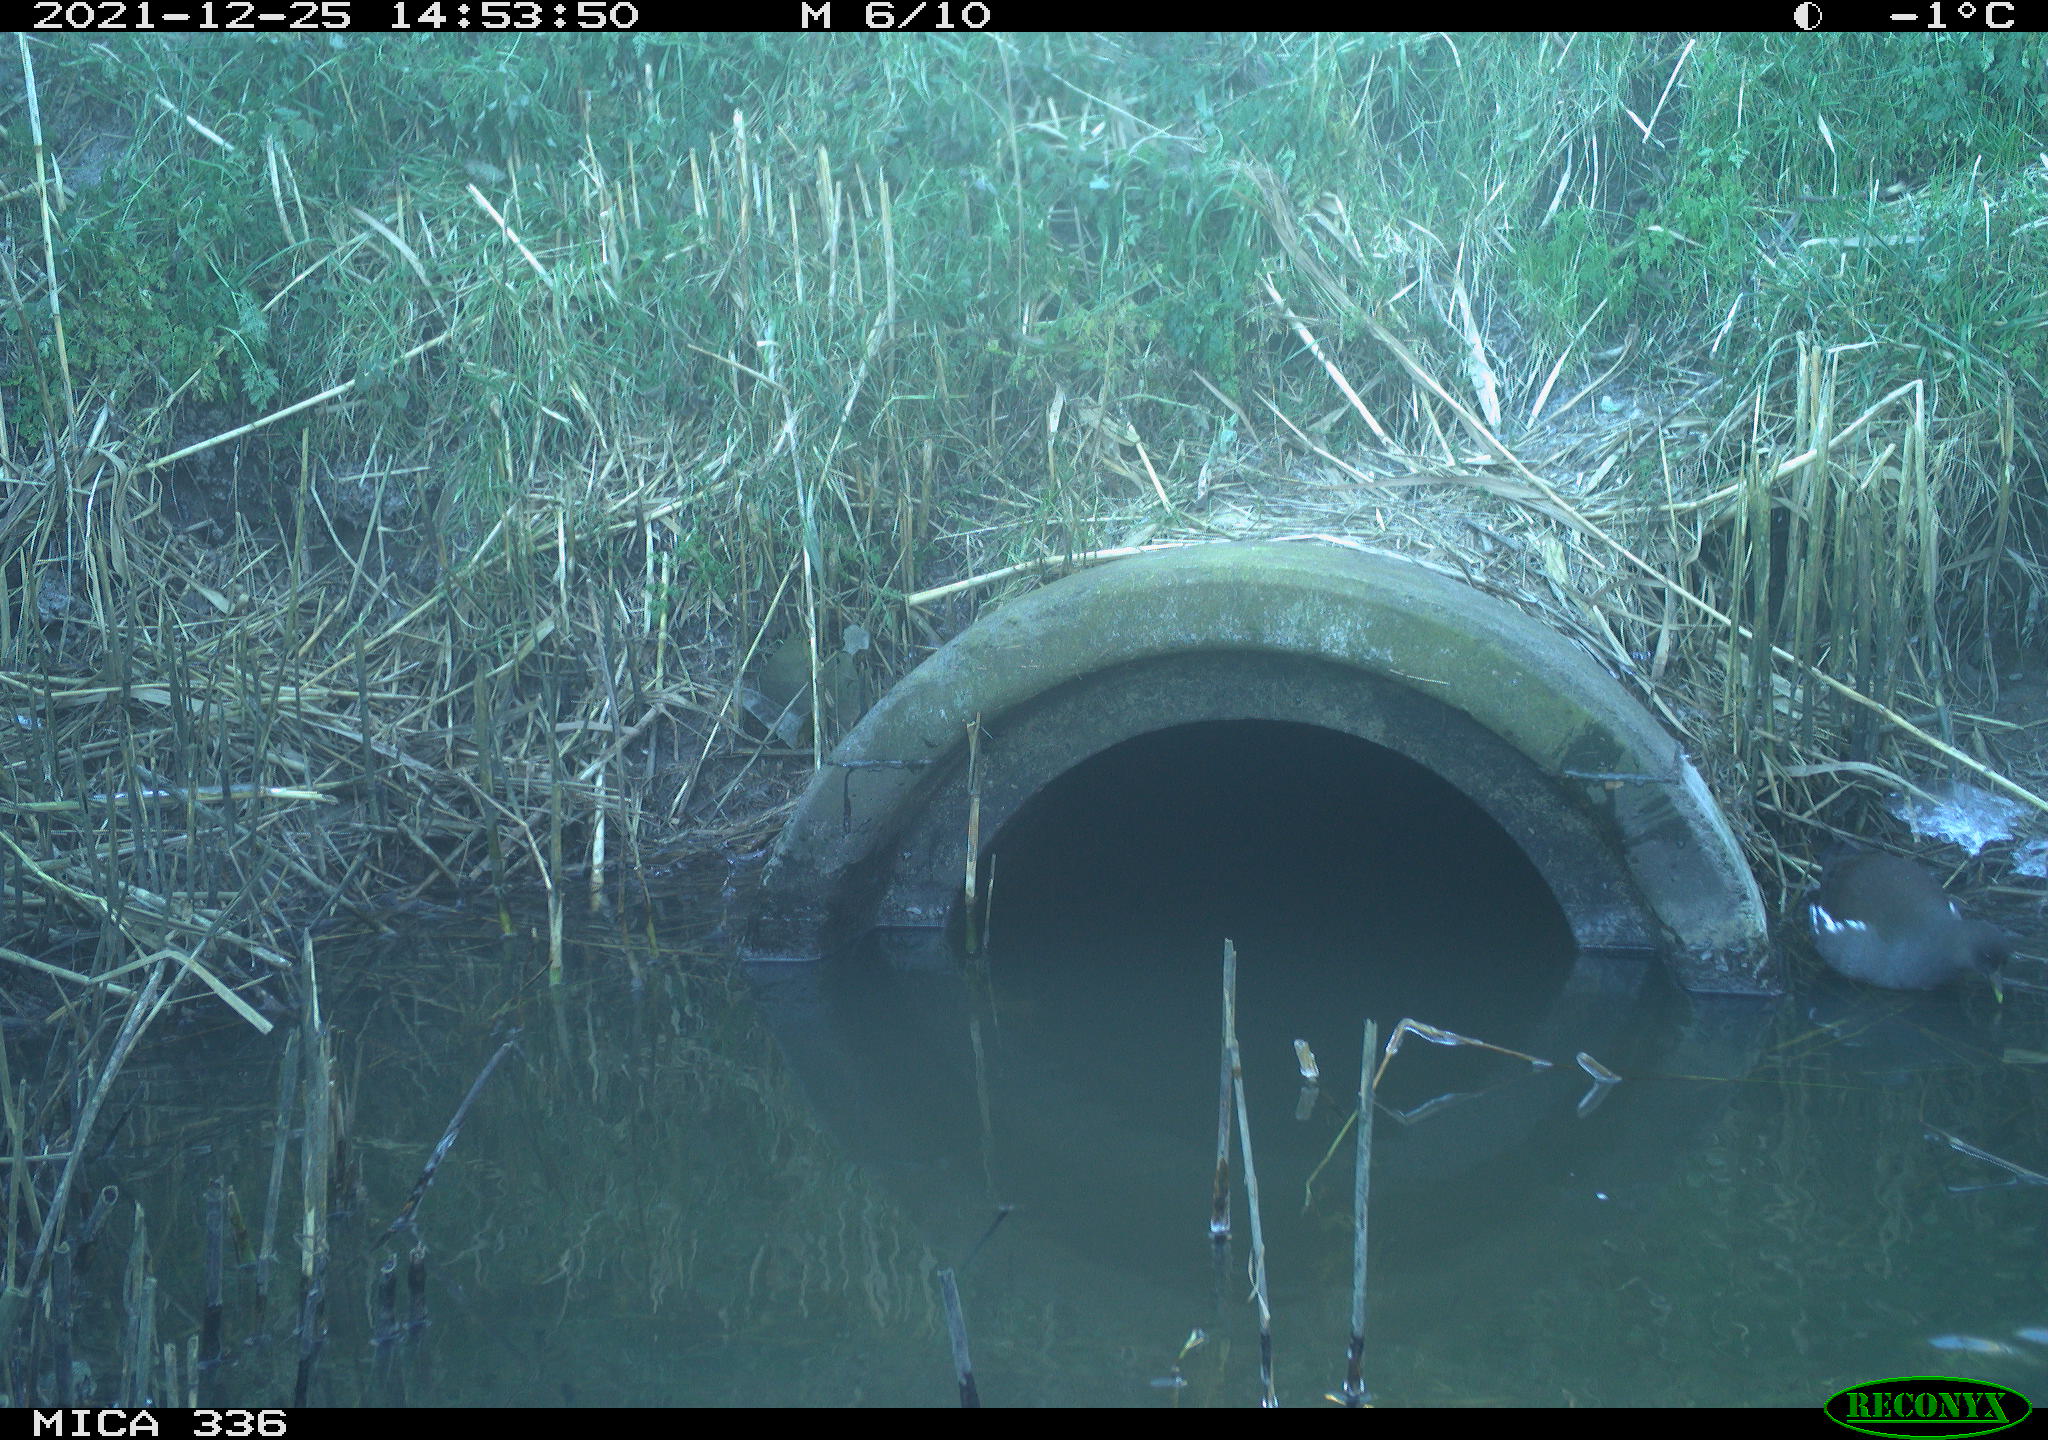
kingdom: Animalia
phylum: Chordata
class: Aves
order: Gruiformes
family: Rallidae
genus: Gallinula
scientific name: Gallinula chloropus
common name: Common moorhen
